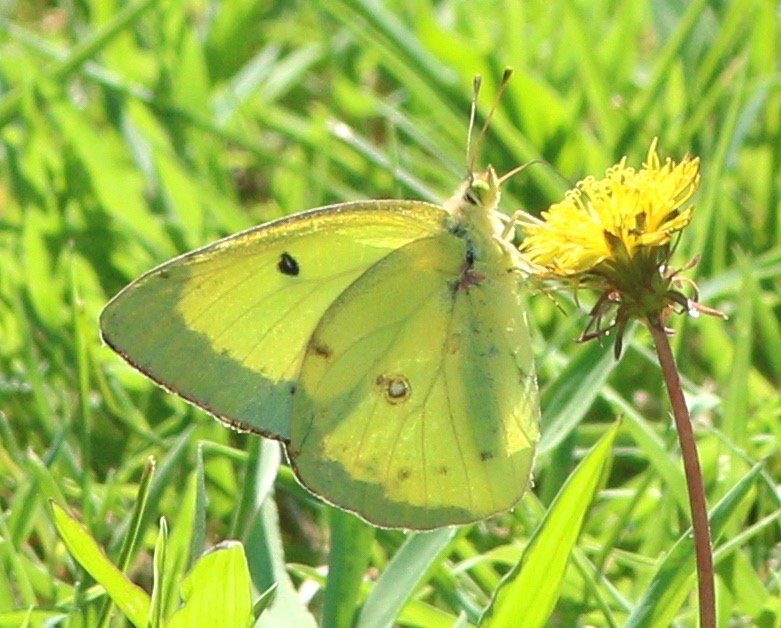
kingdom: Animalia
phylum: Arthropoda
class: Insecta
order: Lepidoptera
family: Pieridae
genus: Colias
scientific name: Colias philodice
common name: Clouded Sulphur
